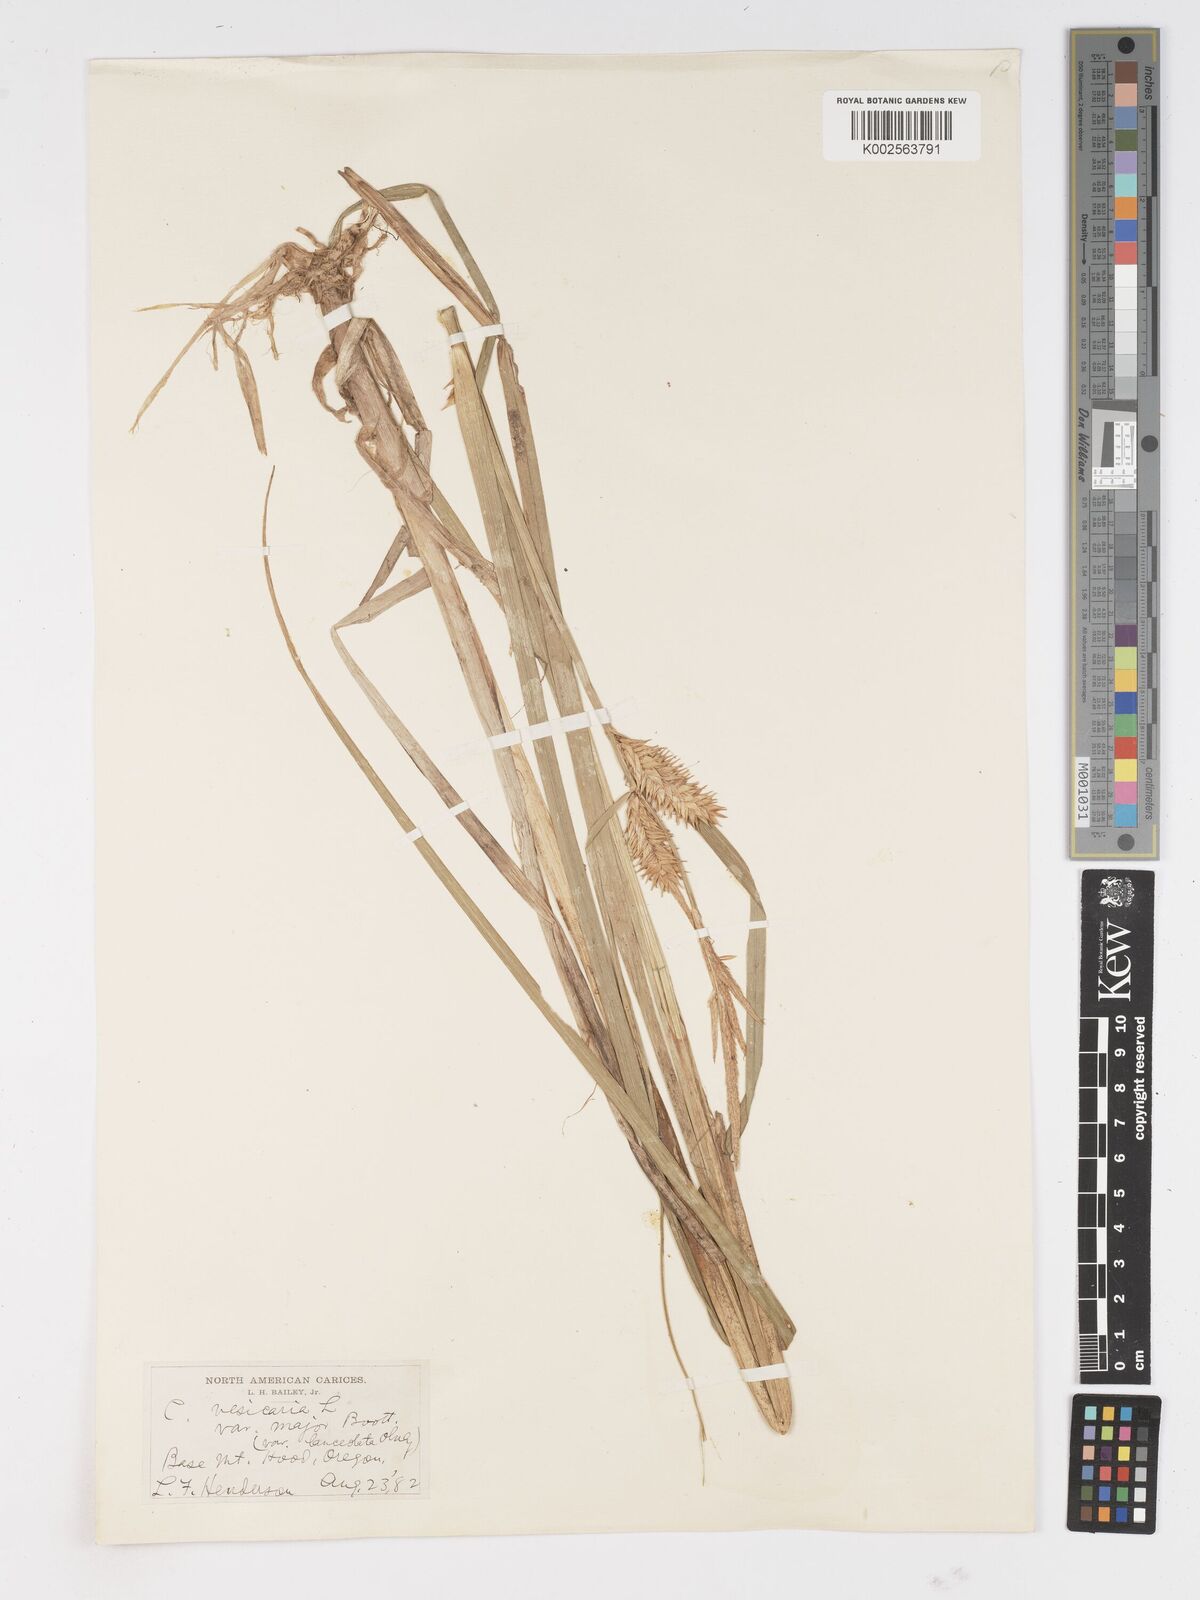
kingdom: Plantae
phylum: Tracheophyta
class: Liliopsida
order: Poales
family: Cyperaceae
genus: Carex
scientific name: Carex vesicaria
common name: Bladder-sedge
